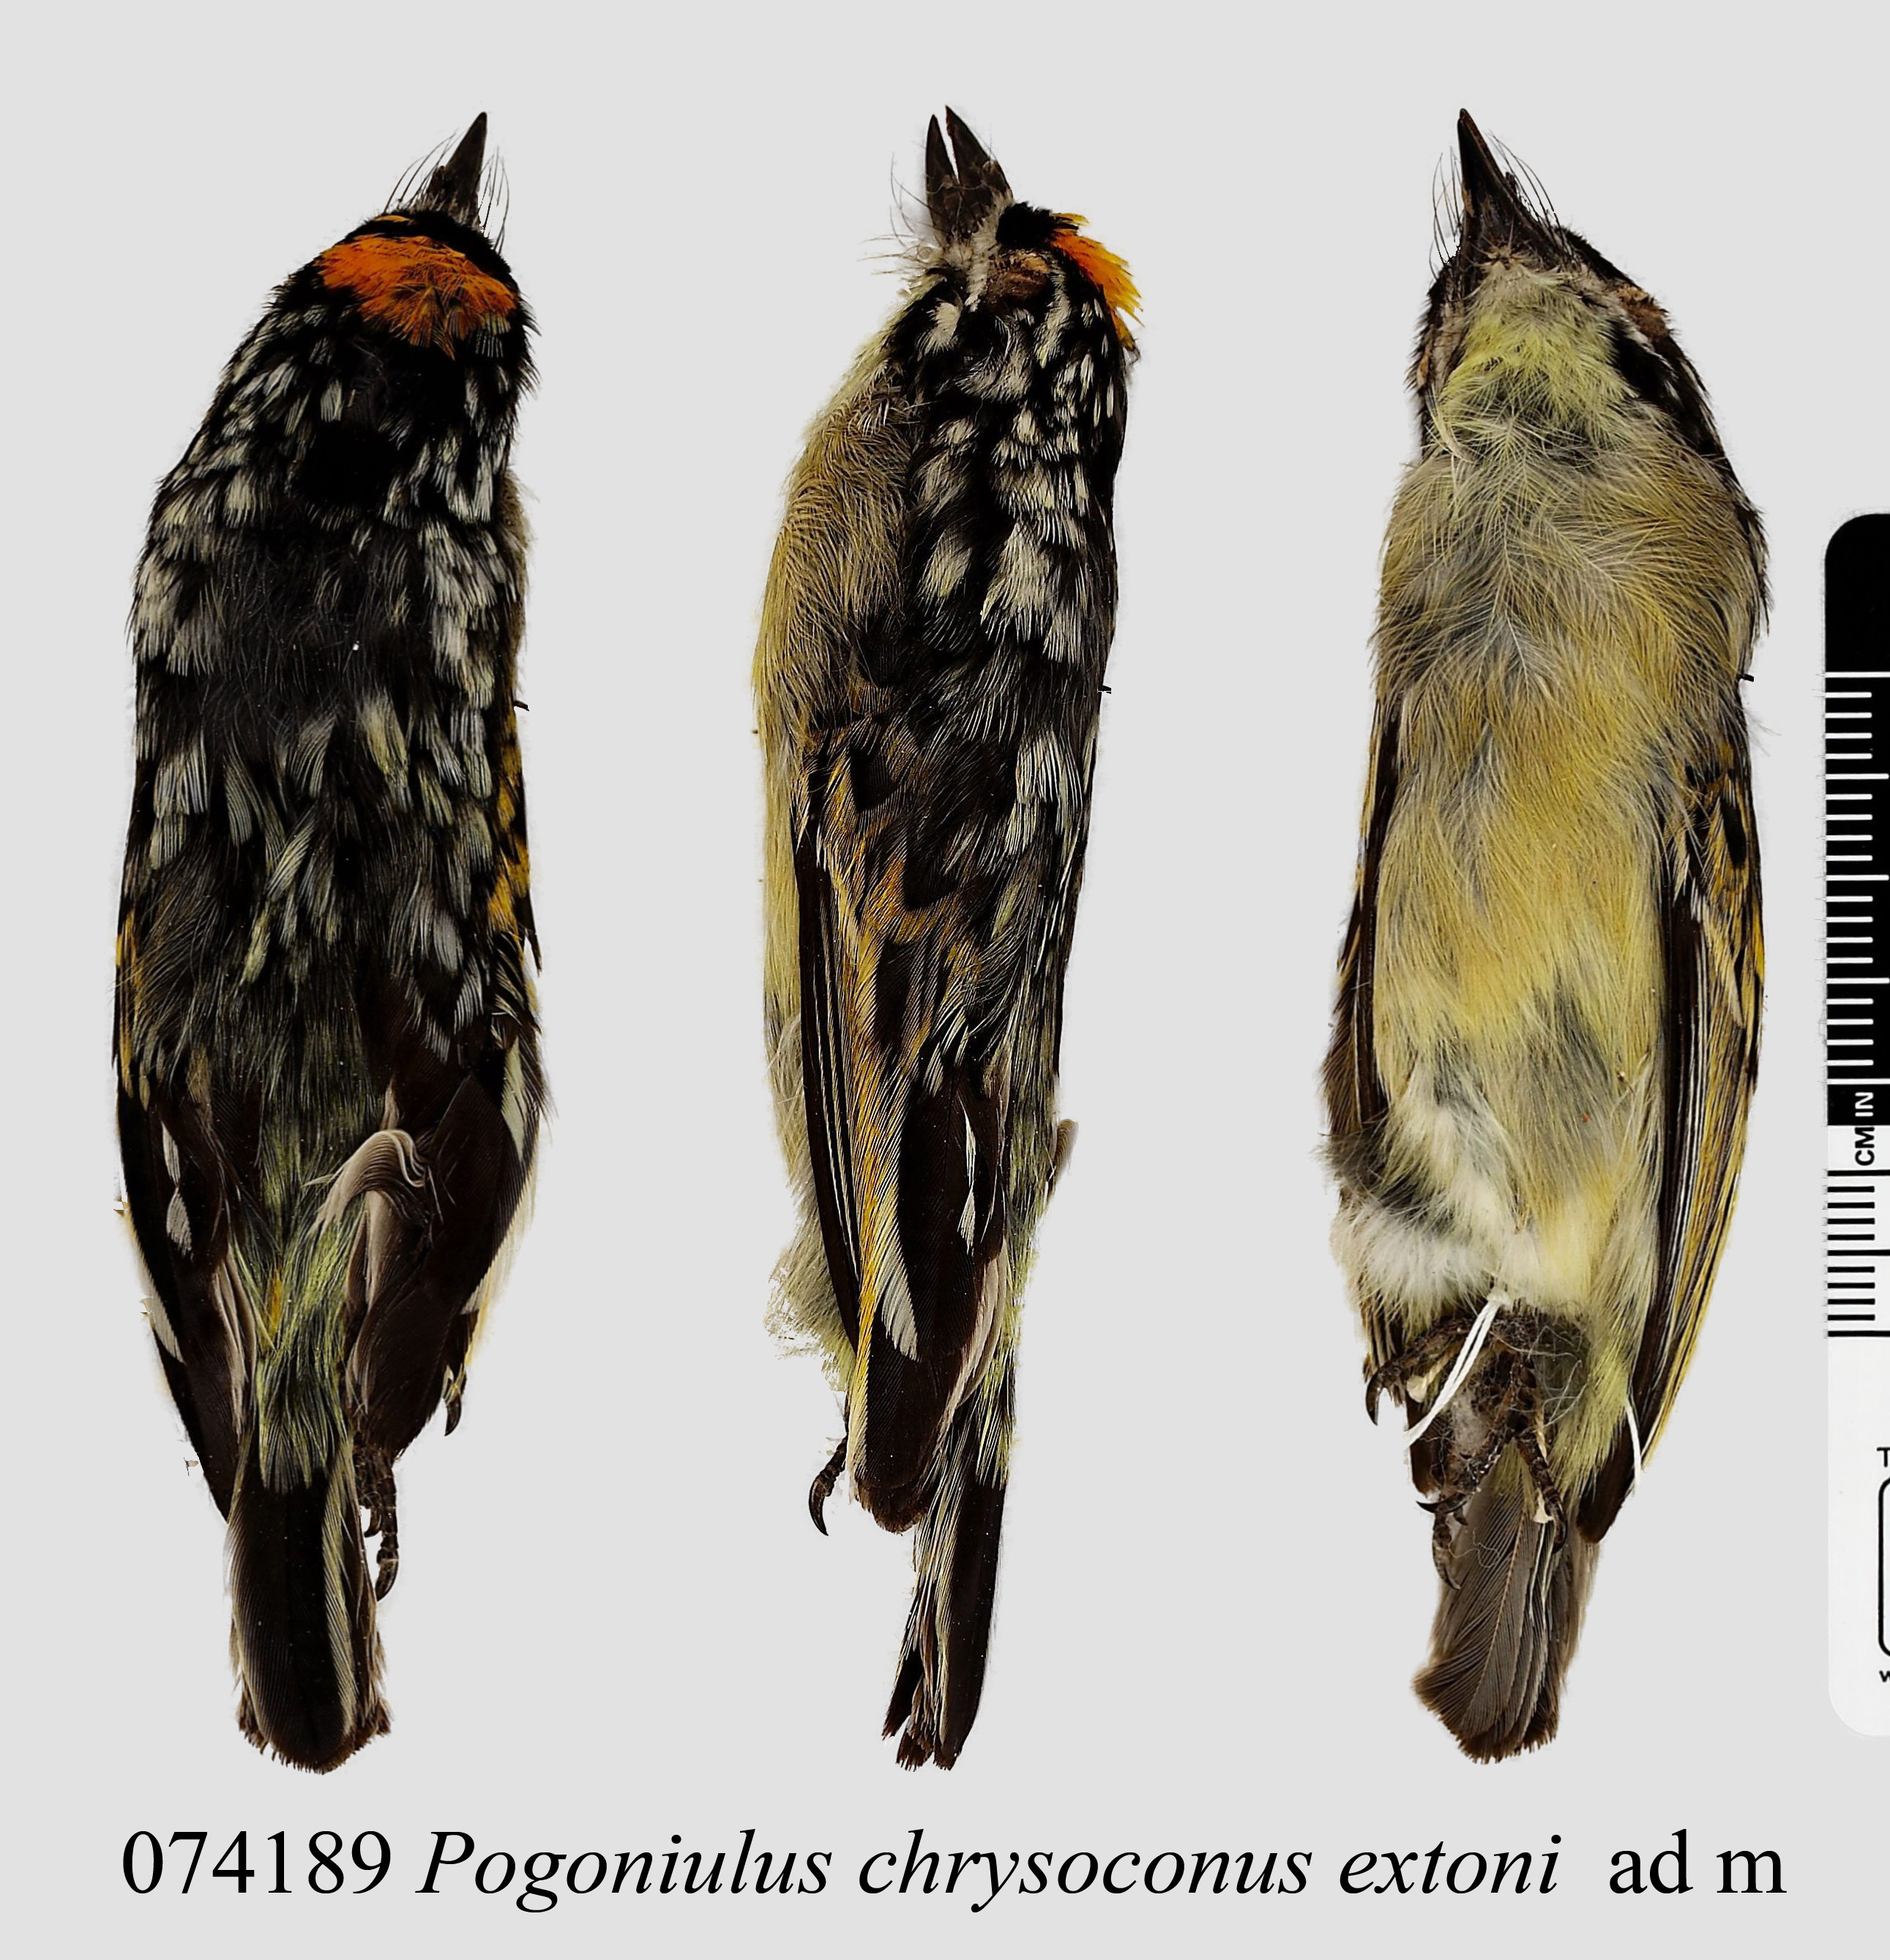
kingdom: Animalia
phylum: Chordata
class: Aves
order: Piciformes
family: Lybiidae
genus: Pogoniulus
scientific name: Pogoniulus chrysoconus
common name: Yellow-fronted tinkerbird
